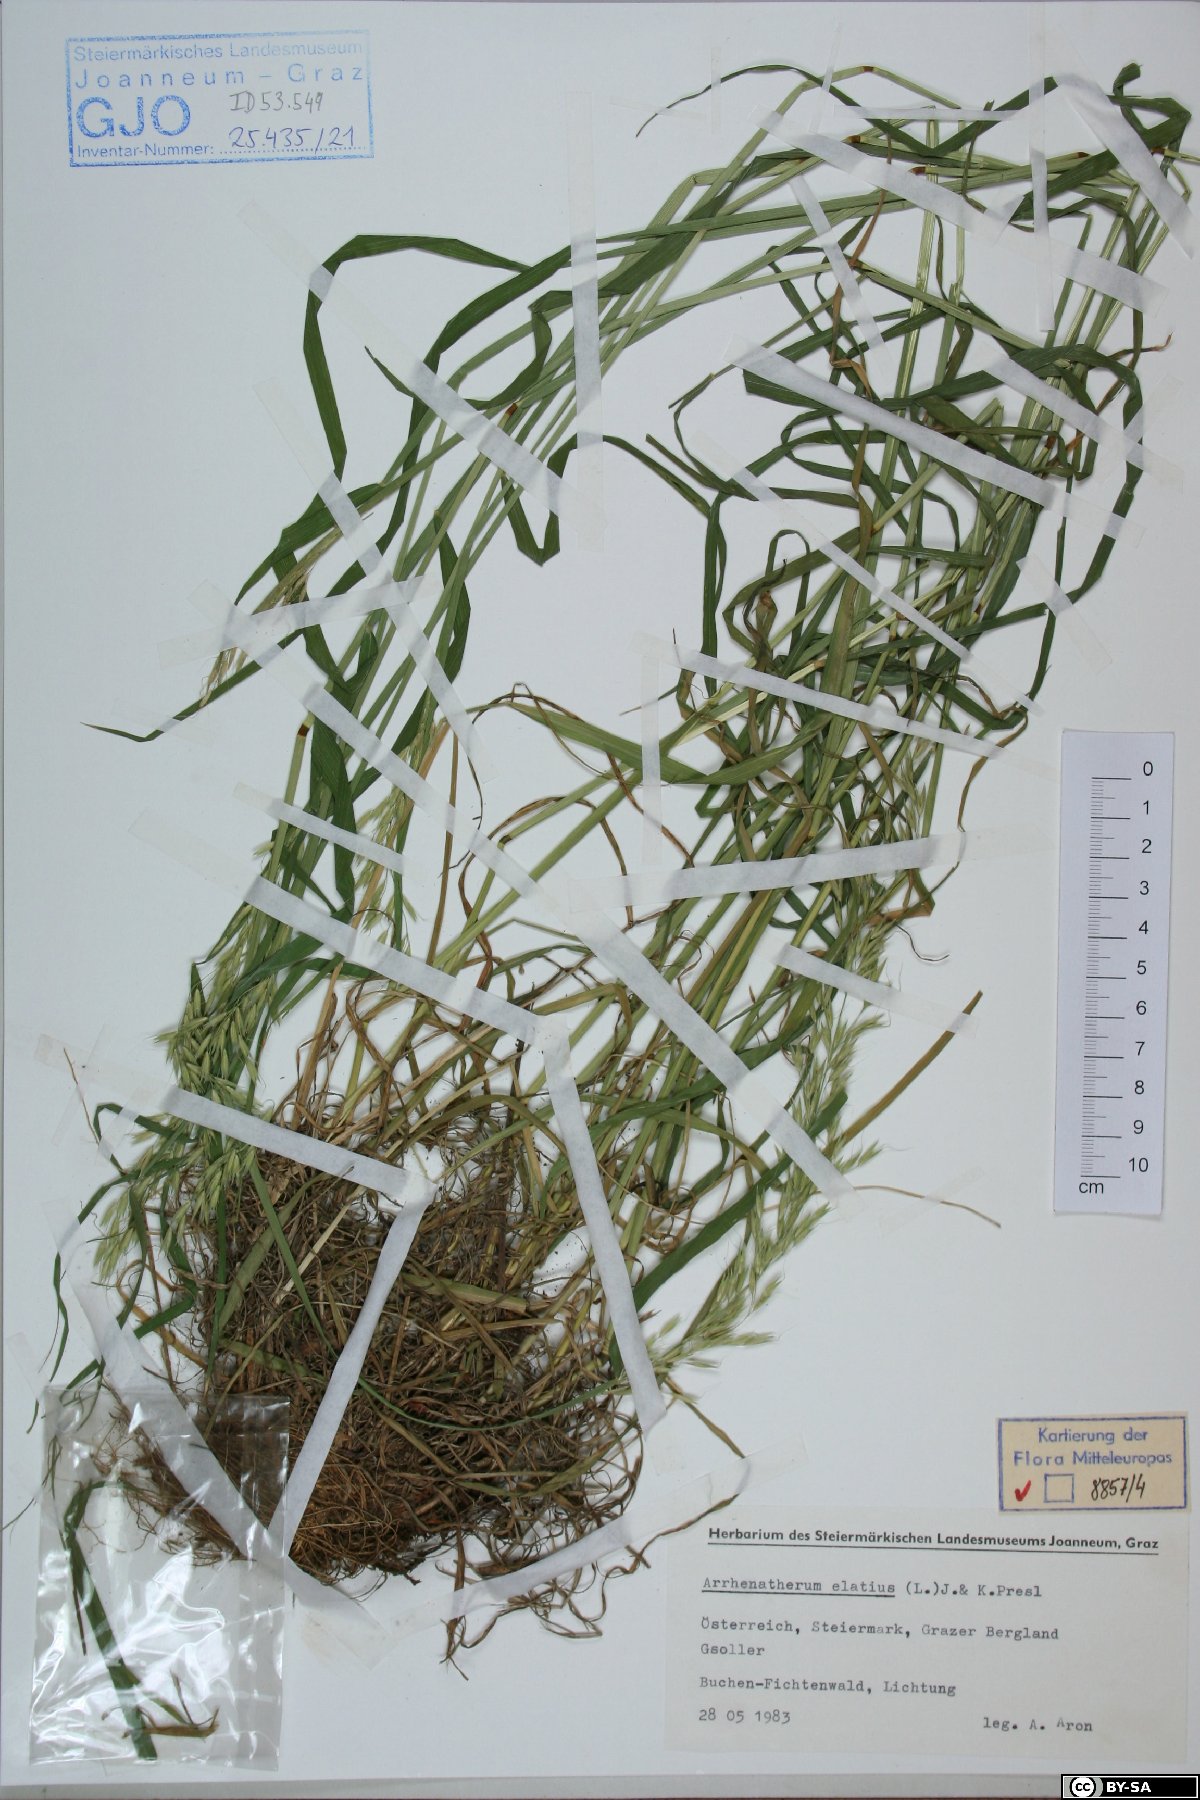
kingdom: Plantae
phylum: Tracheophyta
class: Liliopsida
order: Poales
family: Poaceae
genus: Arrhenatherum
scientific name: Arrhenatherum elatius
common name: Tall oatgrass
